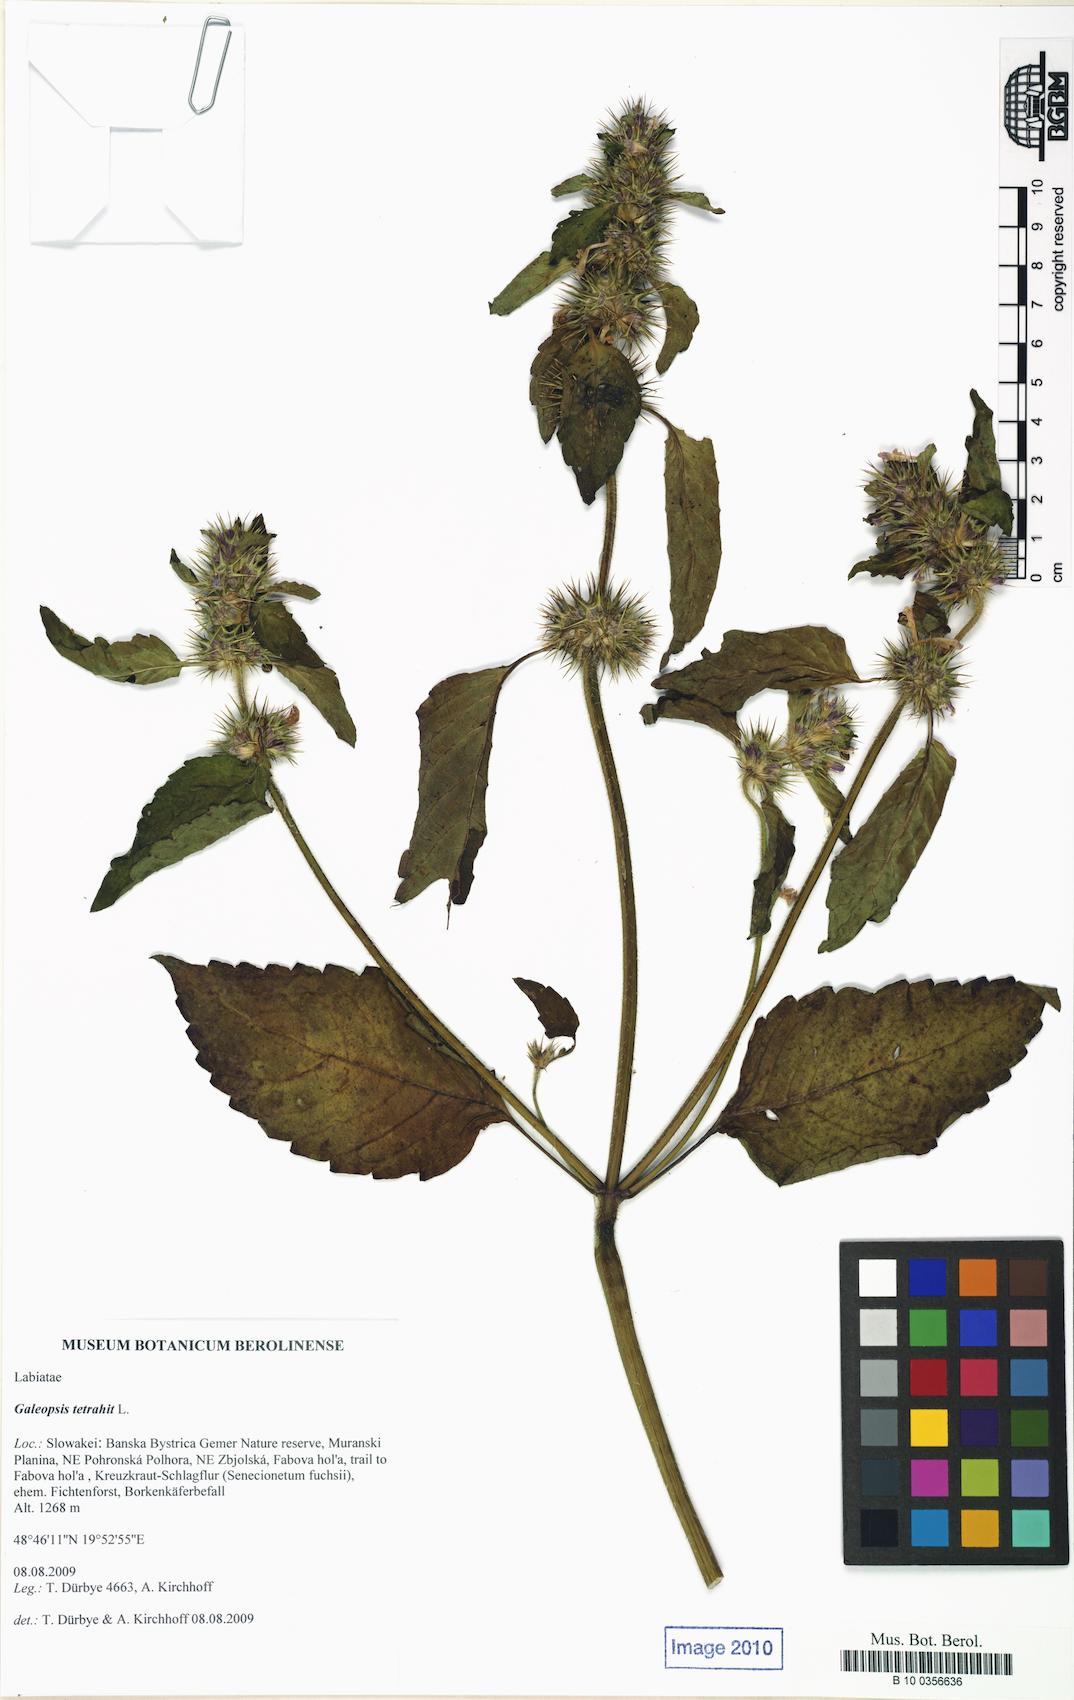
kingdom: Plantae
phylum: Tracheophyta
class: Magnoliopsida
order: Lamiales
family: Lamiaceae
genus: Galeopsis
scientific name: Galeopsis tetrahit
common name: Common hemp-nettle
